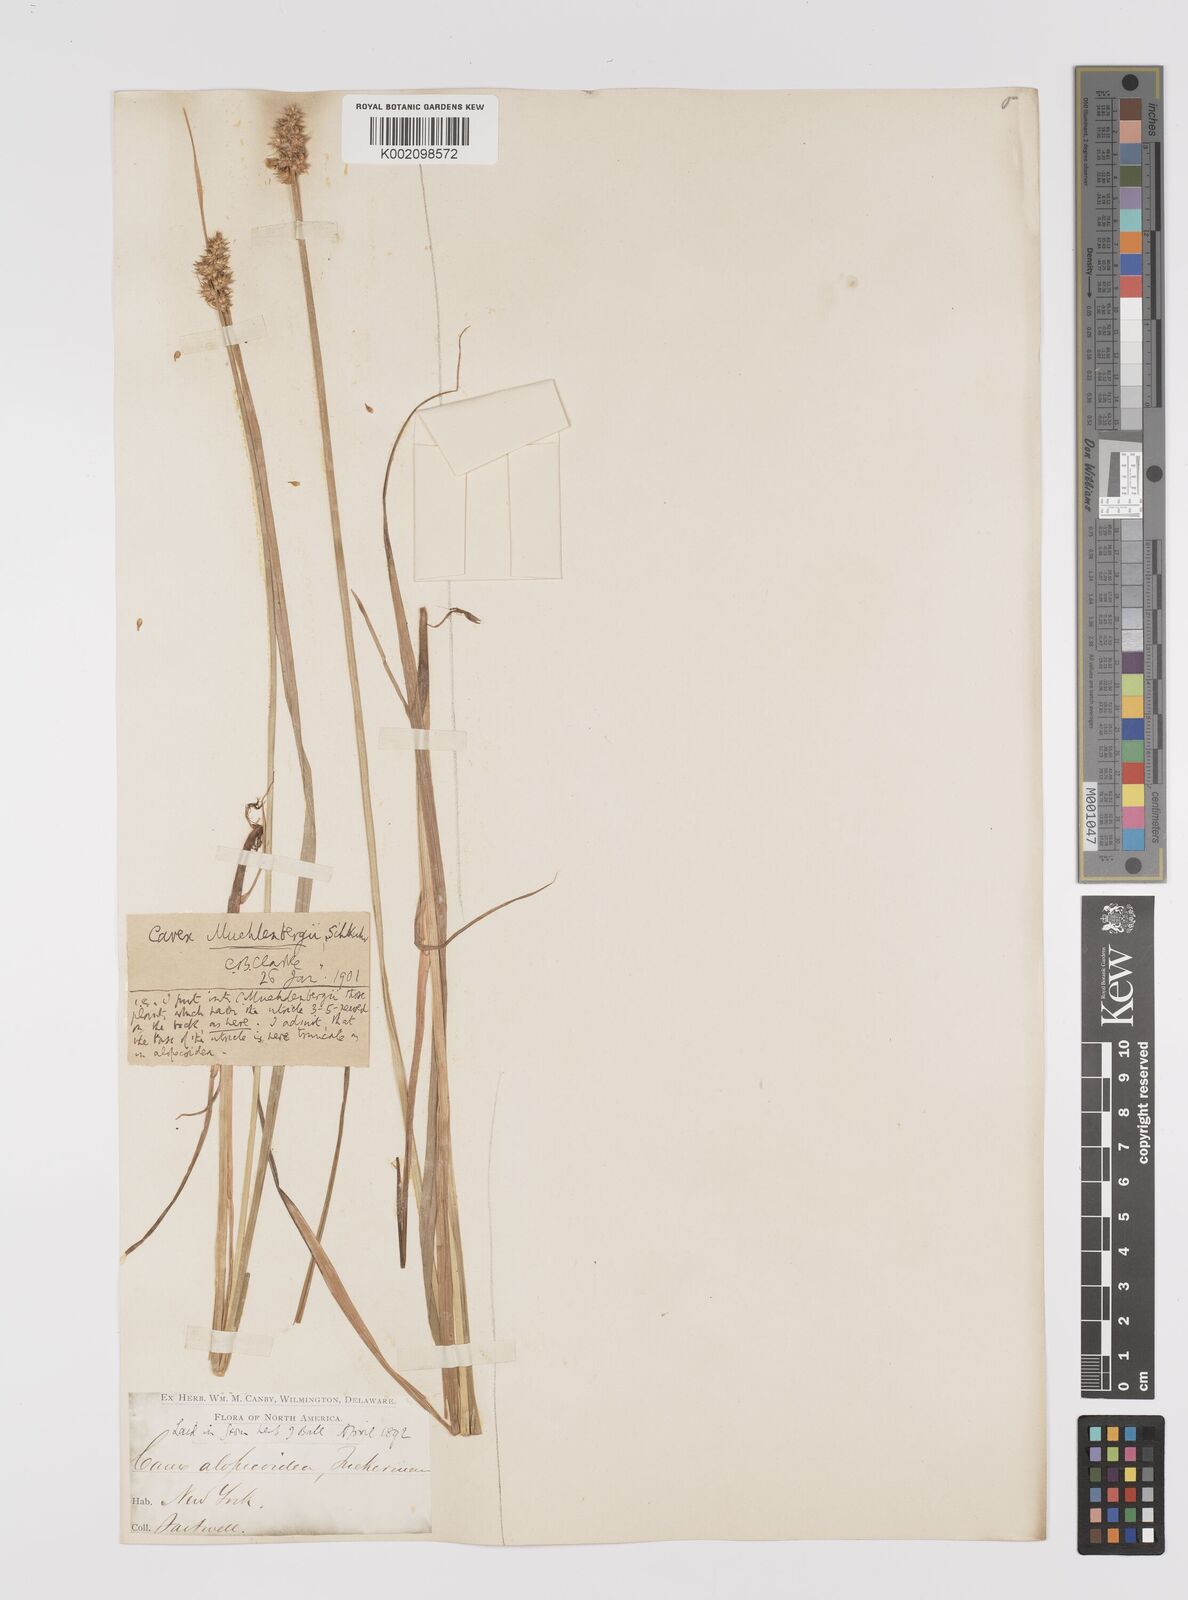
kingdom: Plantae
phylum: Tracheophyta
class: Liliopsida
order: Poales
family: Cyperaceae
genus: Carex
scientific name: Carex vulpinoidea
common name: American fox-sedge
